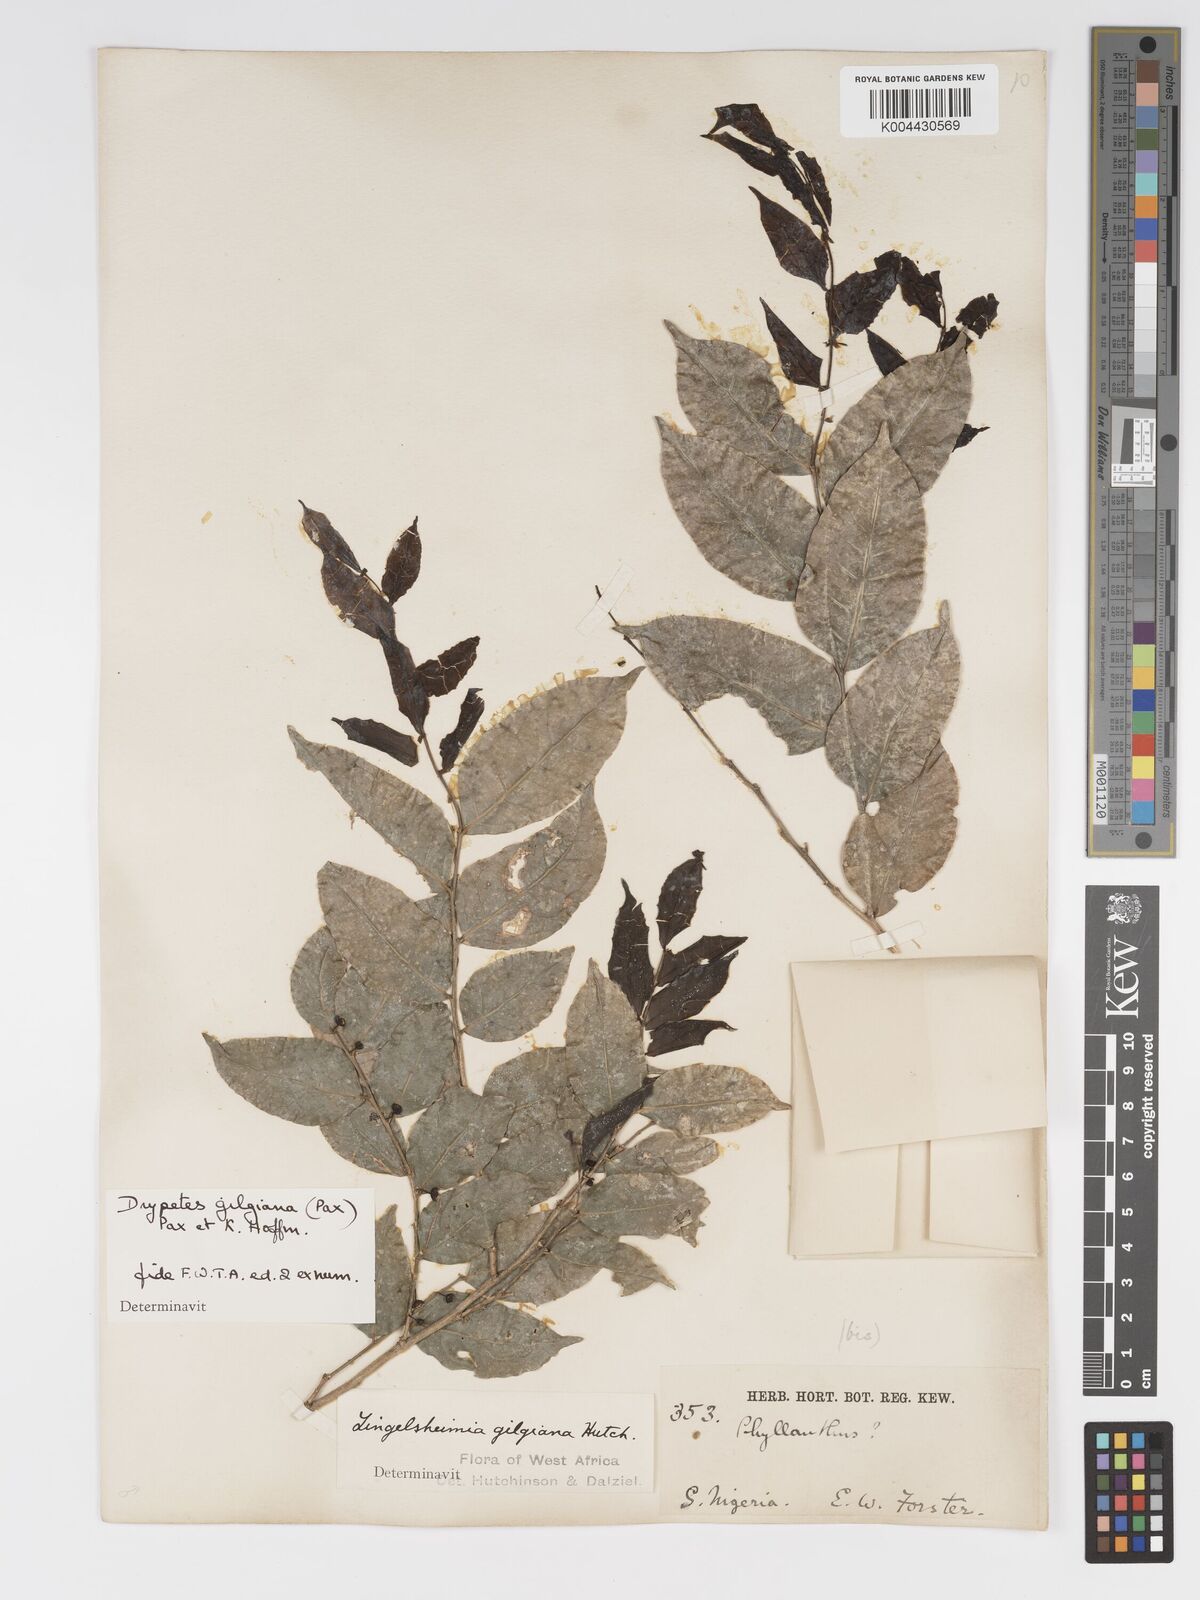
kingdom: Plantae
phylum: Tracheophyta
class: Magnoliopsida
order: Malpighiales
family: Putranjivaceae
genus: Drypetes
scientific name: Drypetes gilgiana
